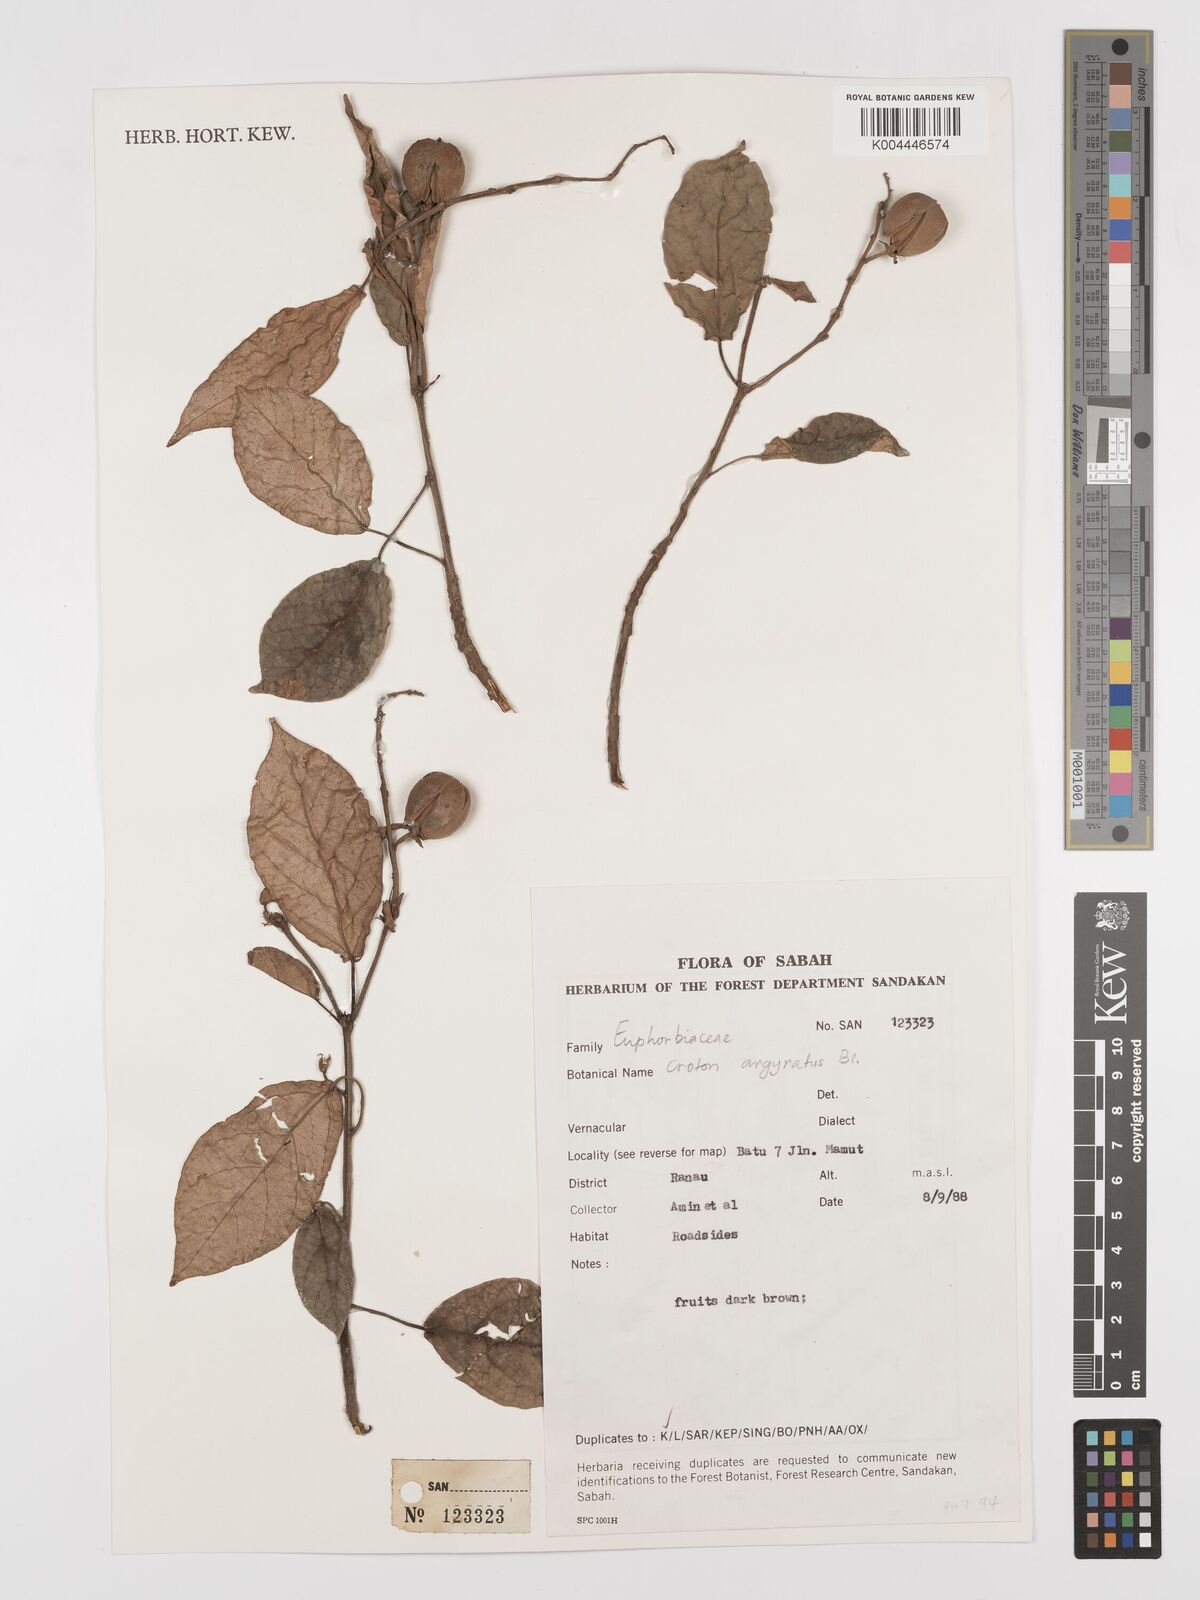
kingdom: Plantae
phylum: Tracheophyta
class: Magnoliopsida
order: Malpighiales
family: Euphorbiaceae
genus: Croton
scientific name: Croton argyratus
